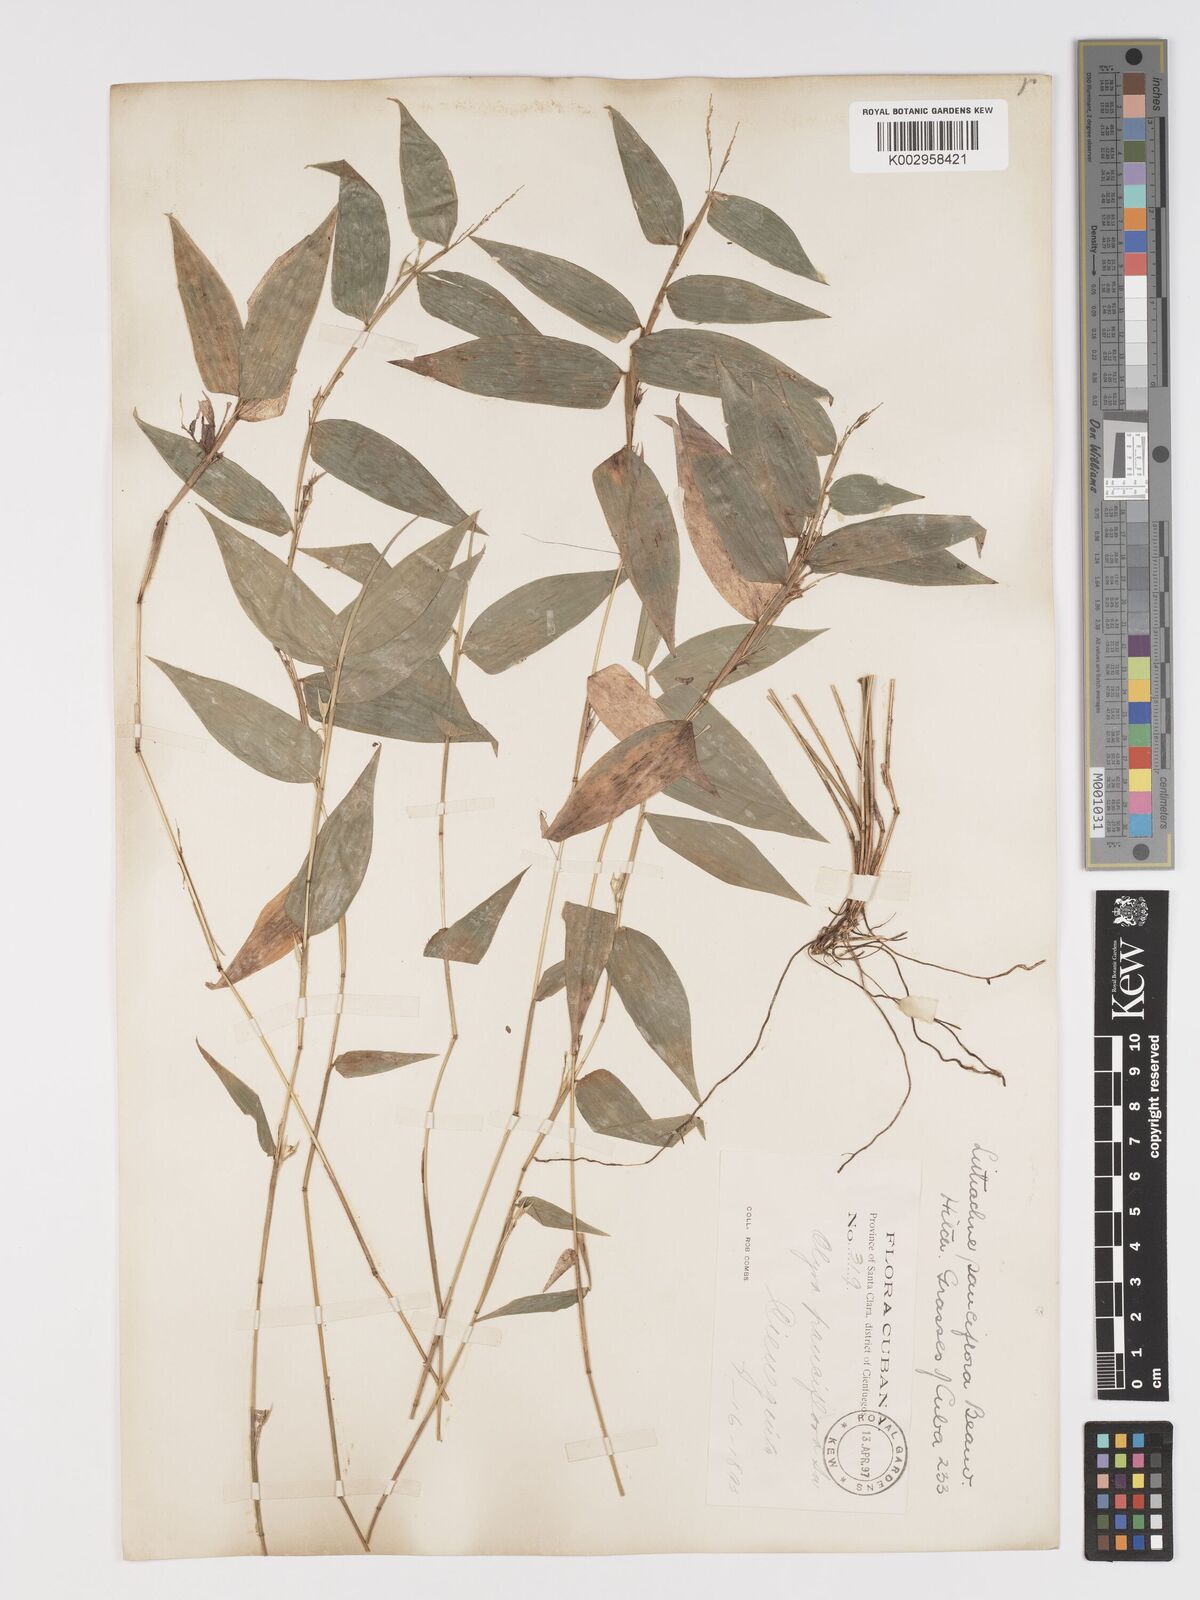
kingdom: Plantae
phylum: Tracheophyta
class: Liliopsida
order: Poales
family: Poaceae
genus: Lithachne
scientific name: Lithachne pauciflora
